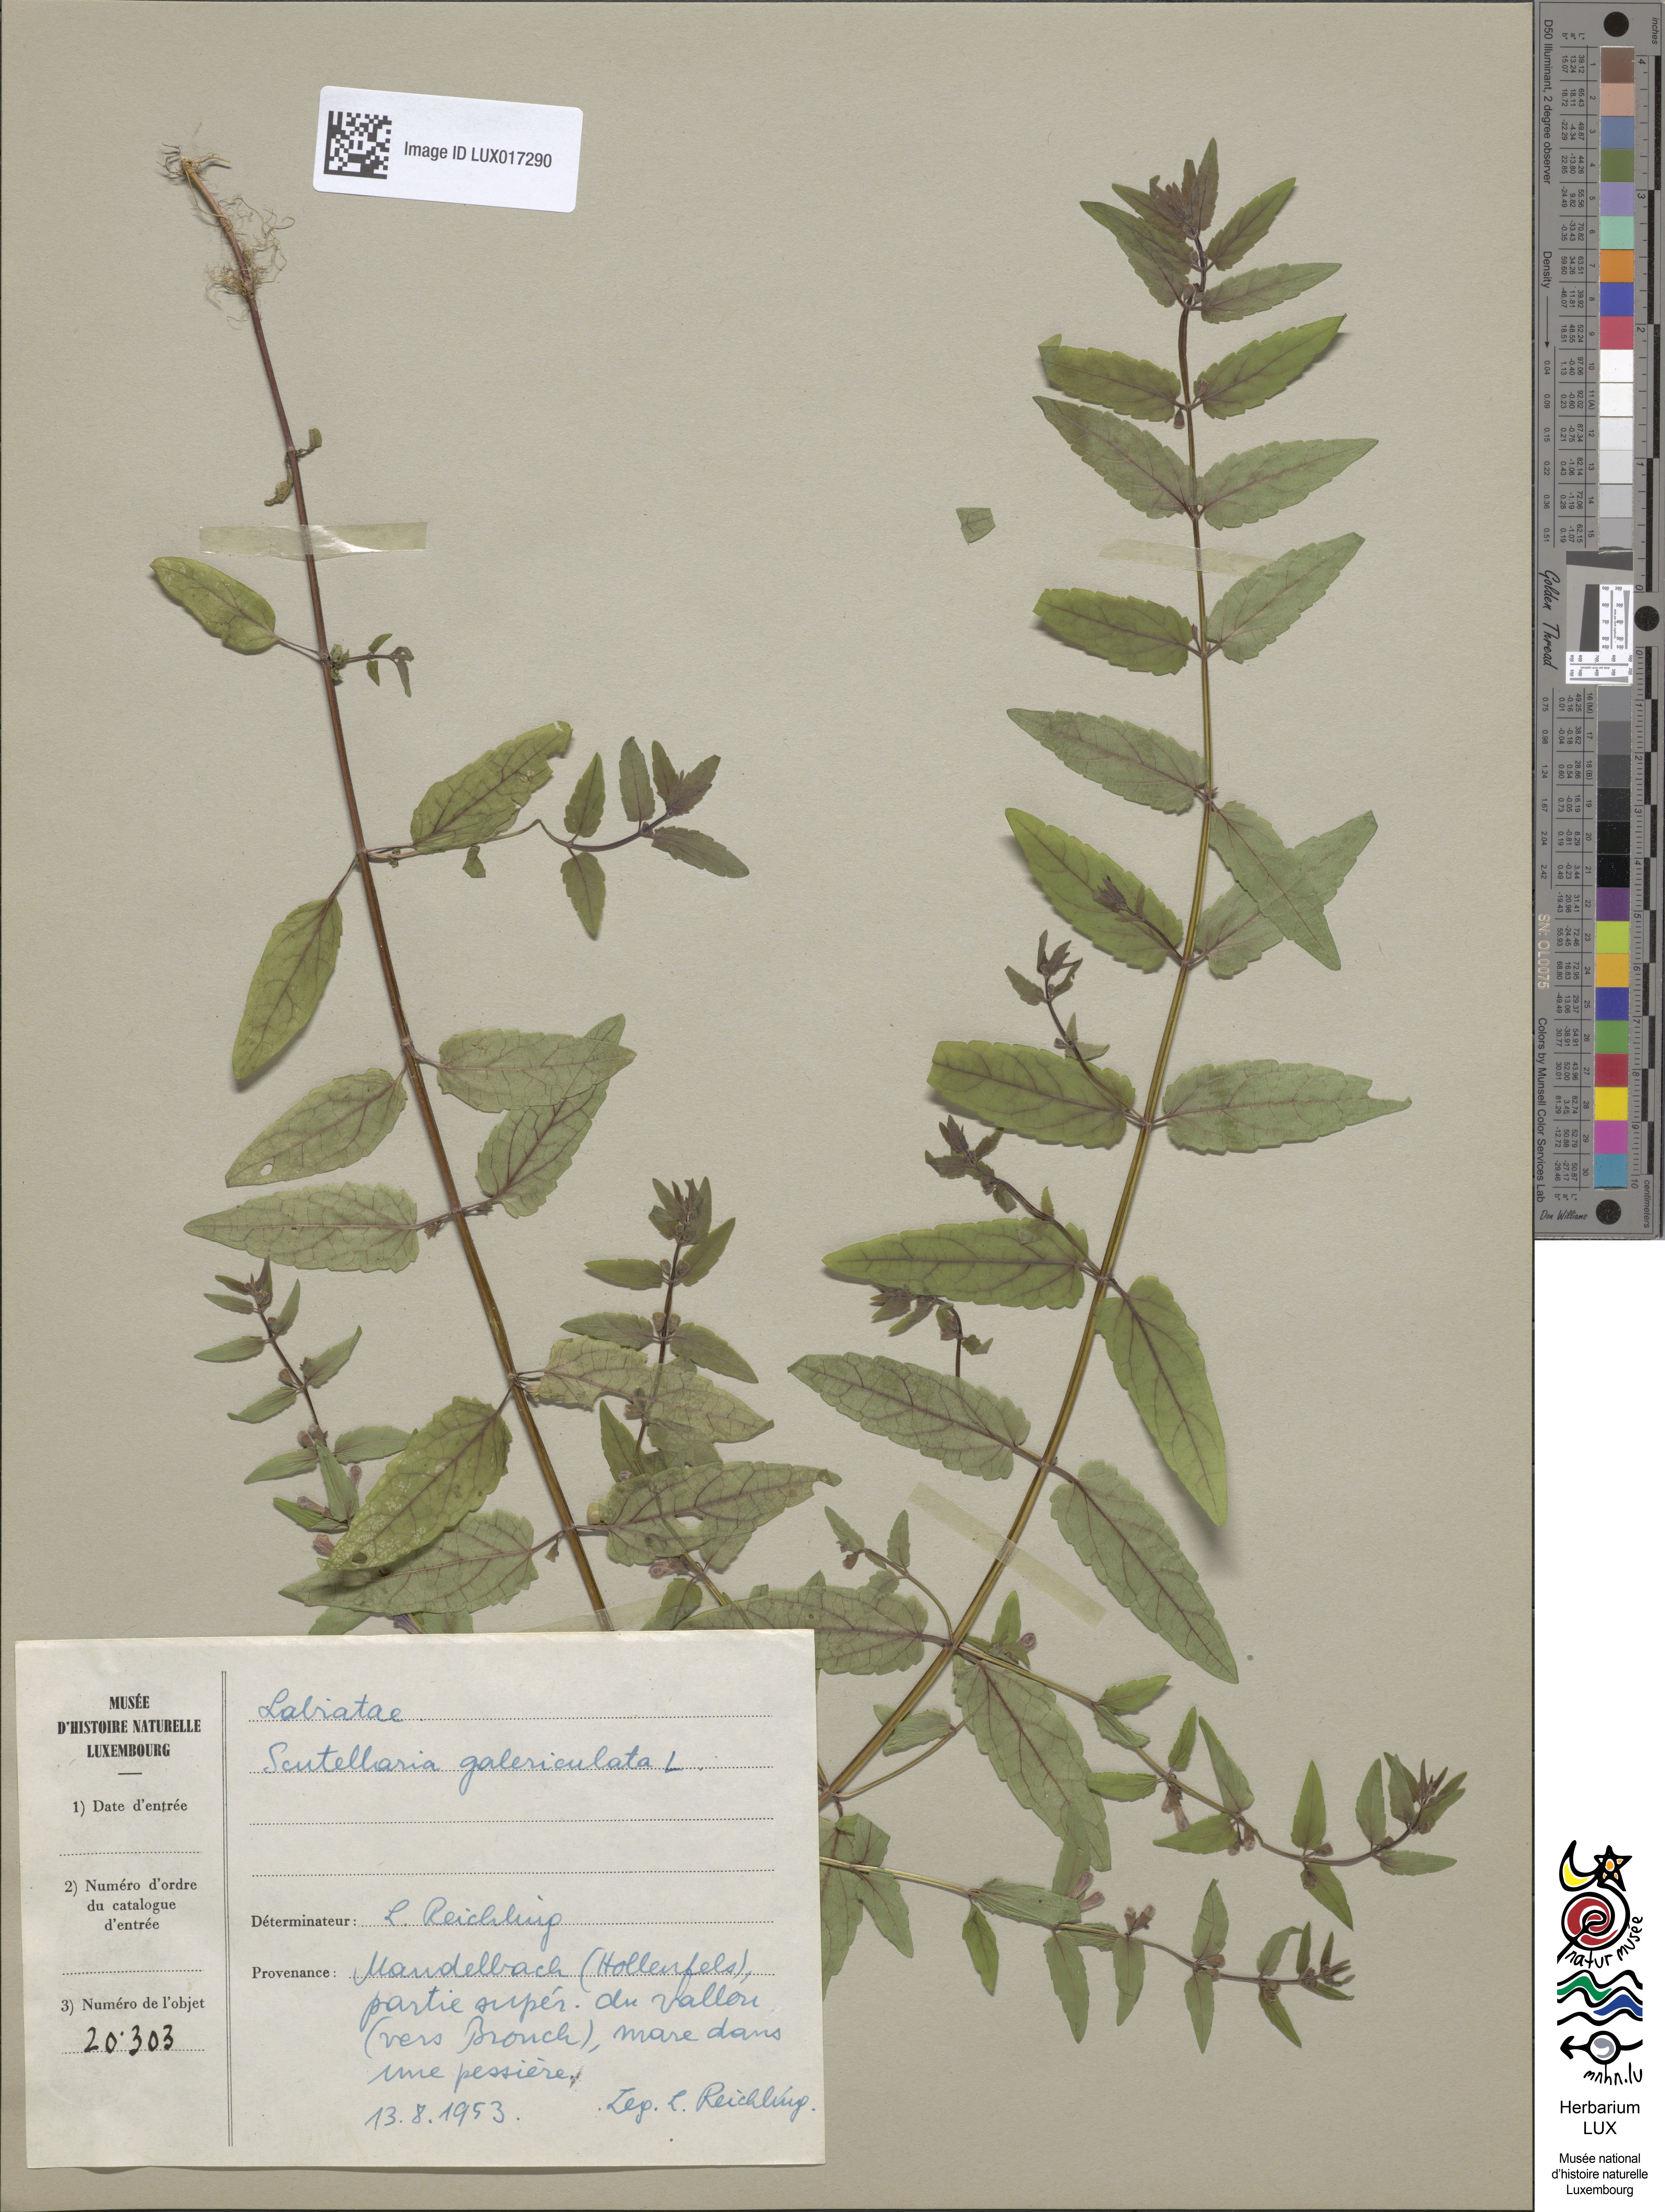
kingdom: Plantae
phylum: Tracheophyta
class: Magnoliopsida
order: Lamiales
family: Lamiaceae
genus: Scutellaria
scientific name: Scutellaria galericulata
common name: Skullcap
